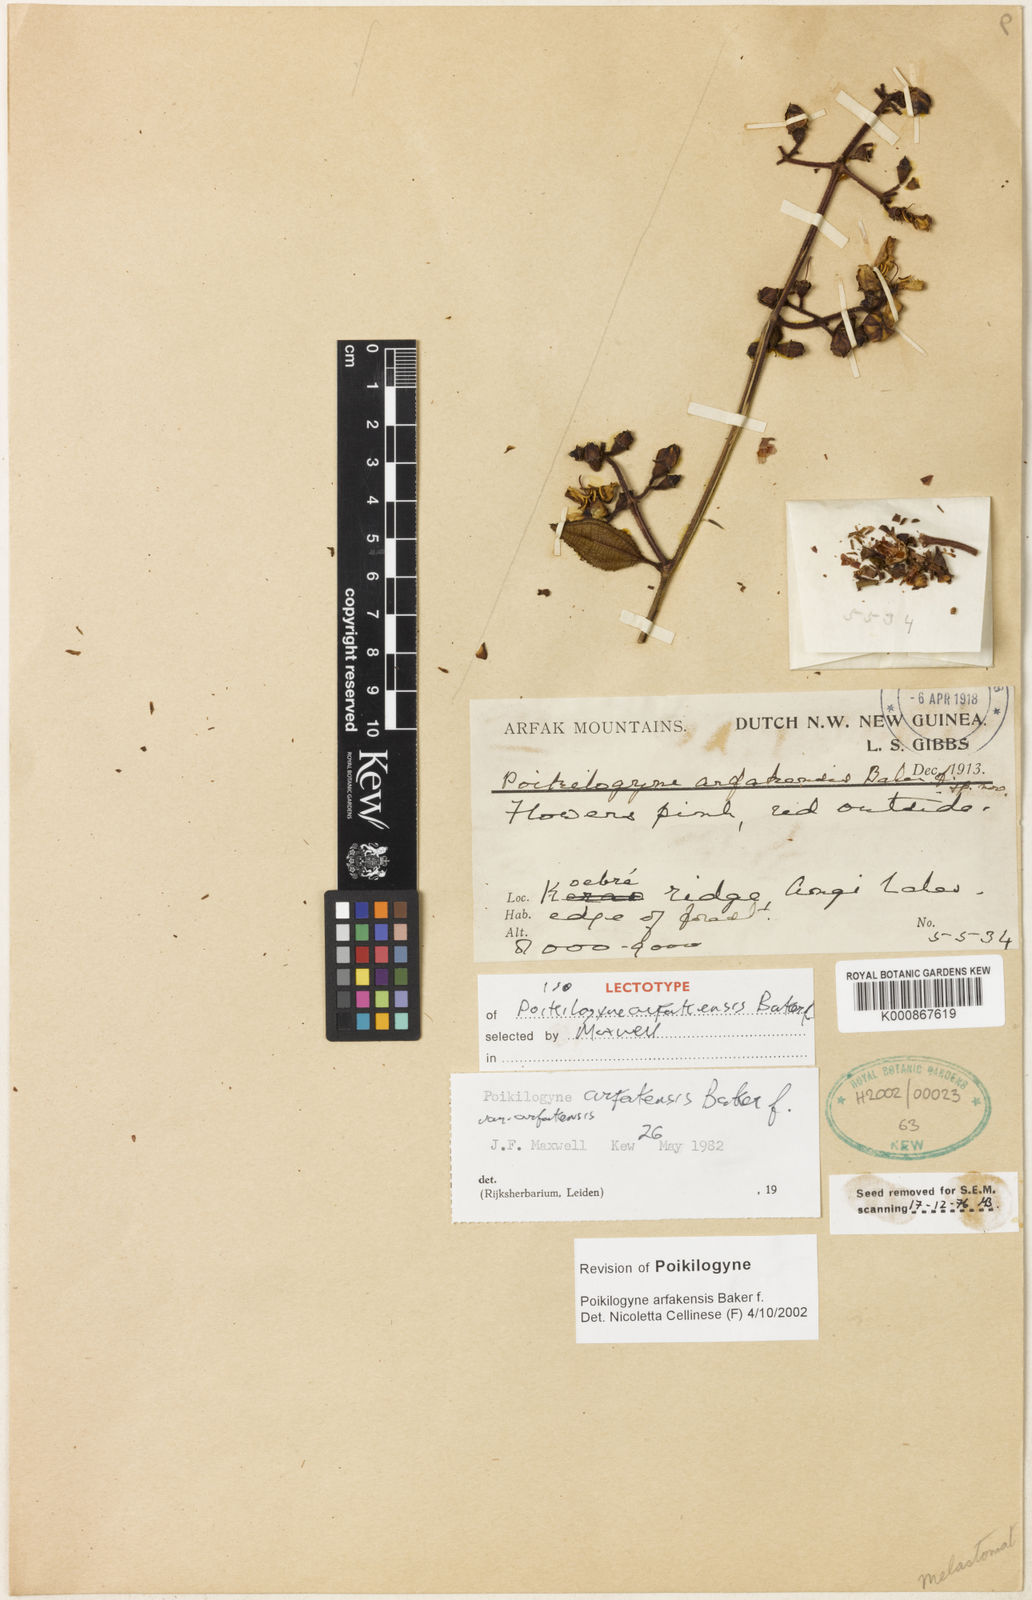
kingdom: Plantae
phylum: Tracheophyta
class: Magnoliopsida
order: Myrtales
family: Melastomataceae
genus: Poikilogyne
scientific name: Poikilogyne arfakensis
